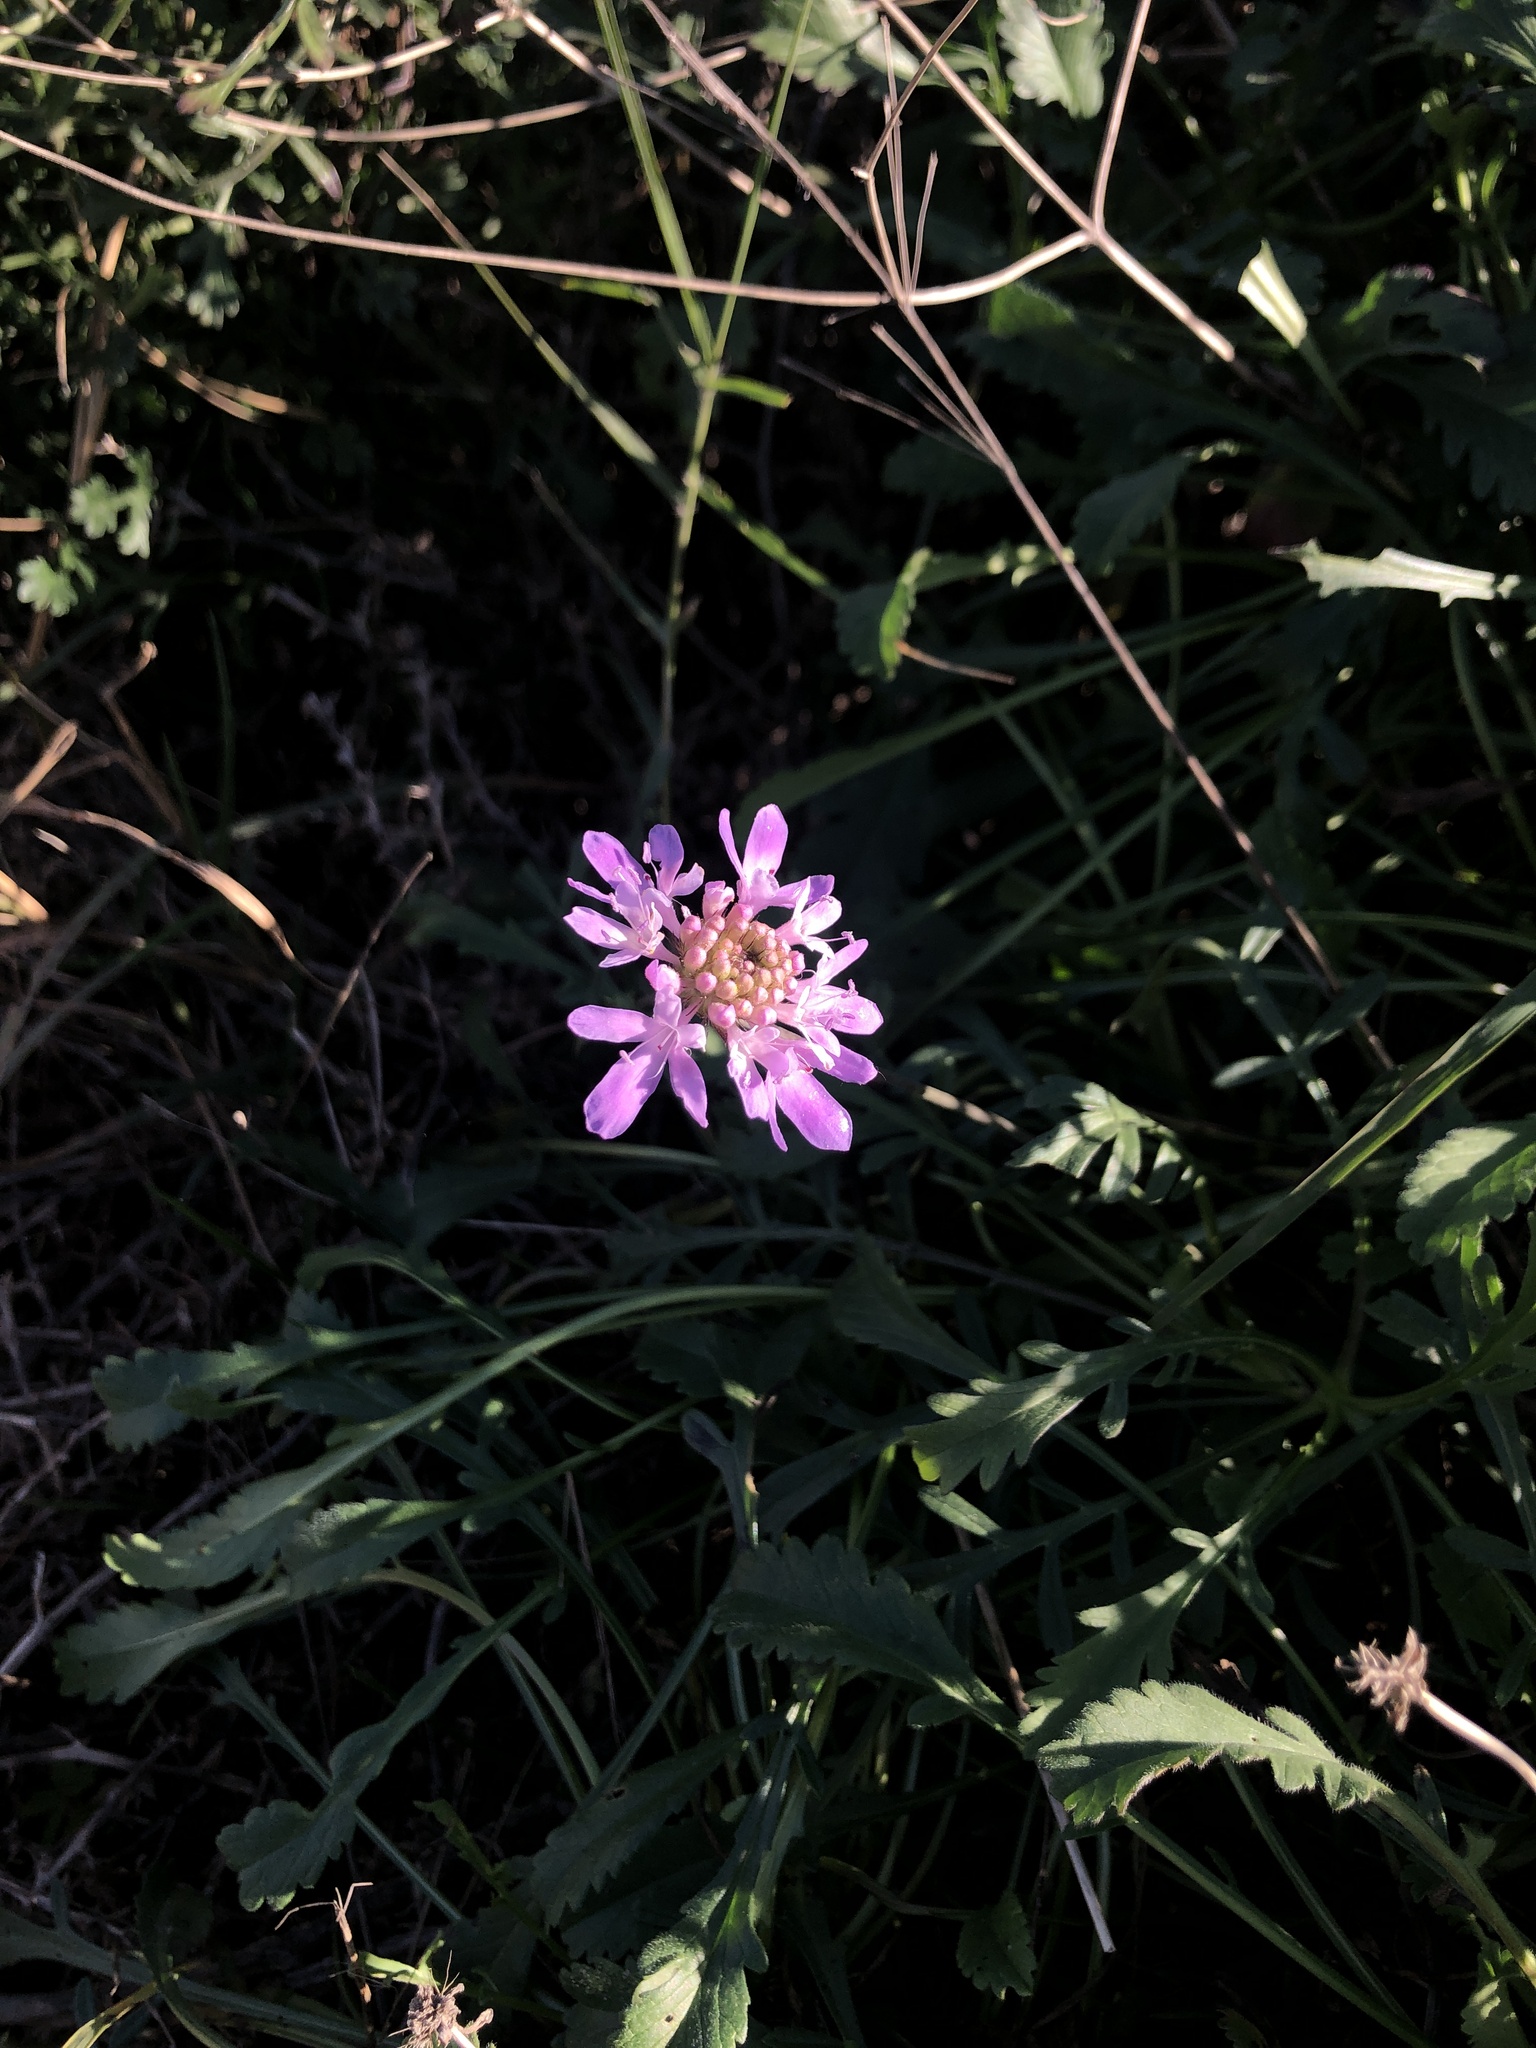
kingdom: Plantae
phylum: Tracheophyta
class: Magnoliopsida
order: Dipsacales
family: Caprifoliaceae
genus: Sixalix
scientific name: Sixalix atropurpurea
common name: Sweet scabious
